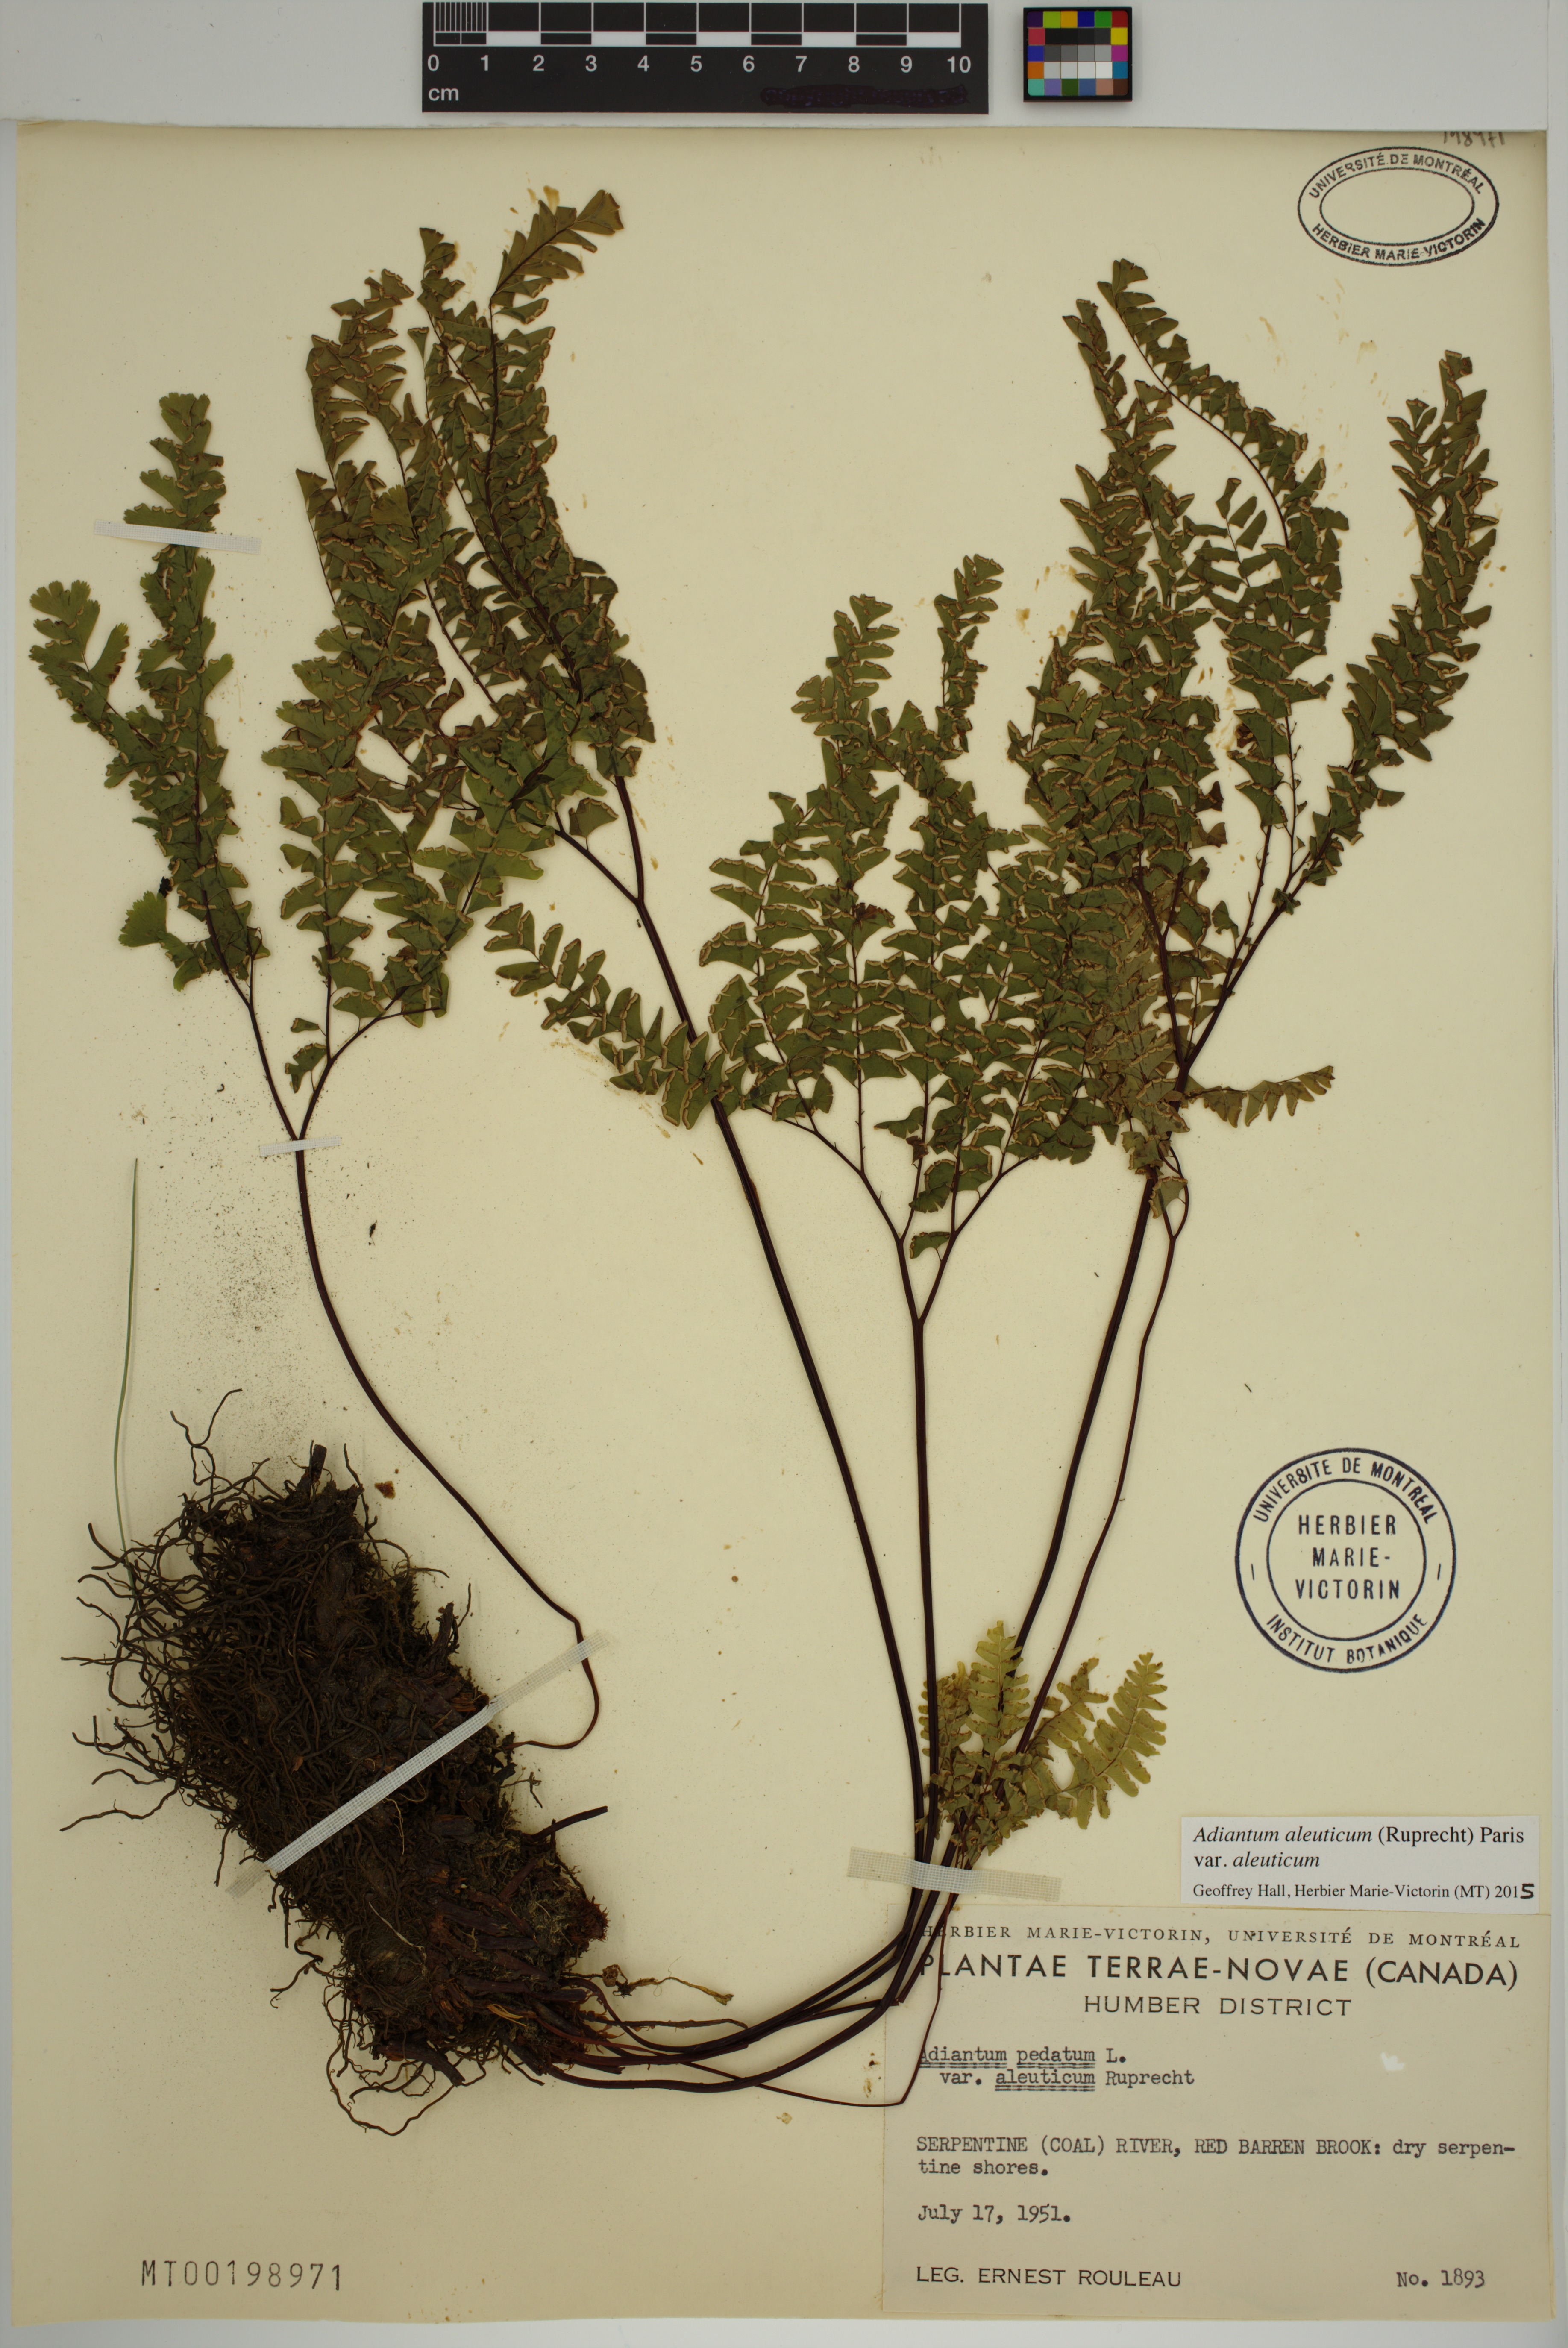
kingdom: Plantae
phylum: Tracheophyta
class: Polypodiopsida
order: Polypodiales
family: Pteridaceae
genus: Adiantum
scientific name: Adiantum aleuticum
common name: Aleutian maidenhair fern
